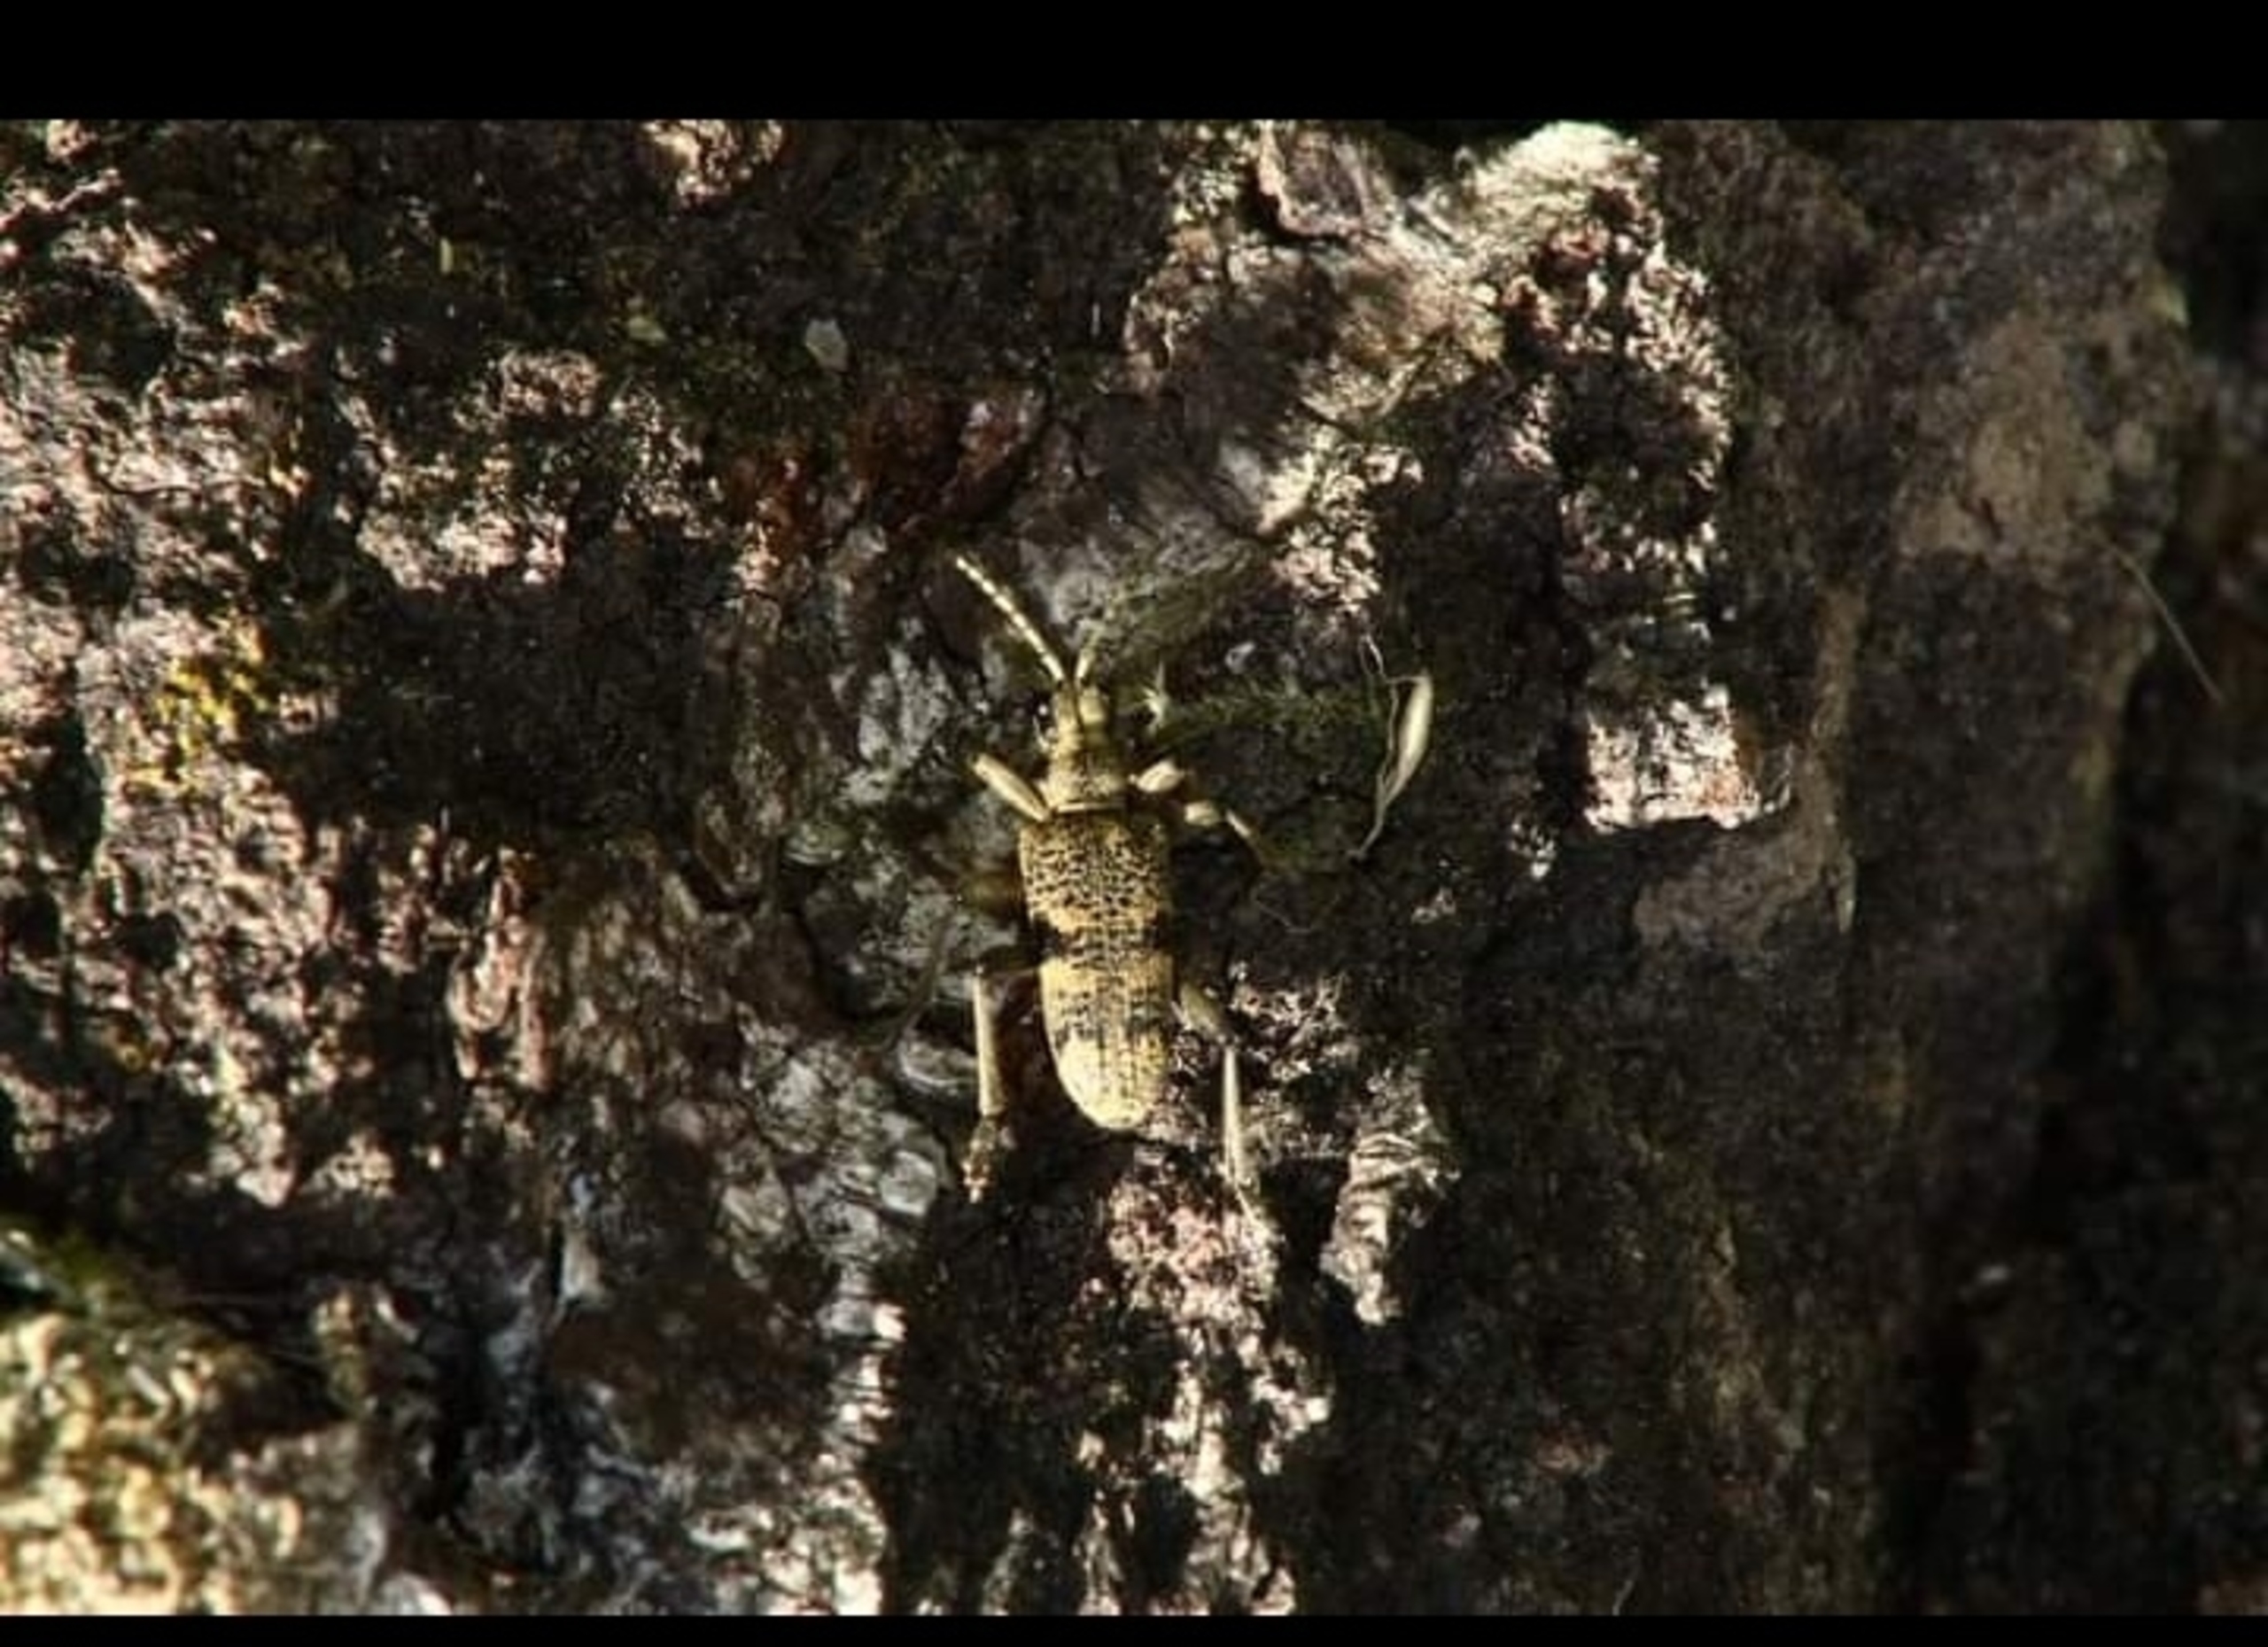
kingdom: Animalia
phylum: Arthropoda
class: Insecta
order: Coleoptera
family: Cerambycidae
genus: Rhagium
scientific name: Rhagium mordax
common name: Blankplettet tandbuk
